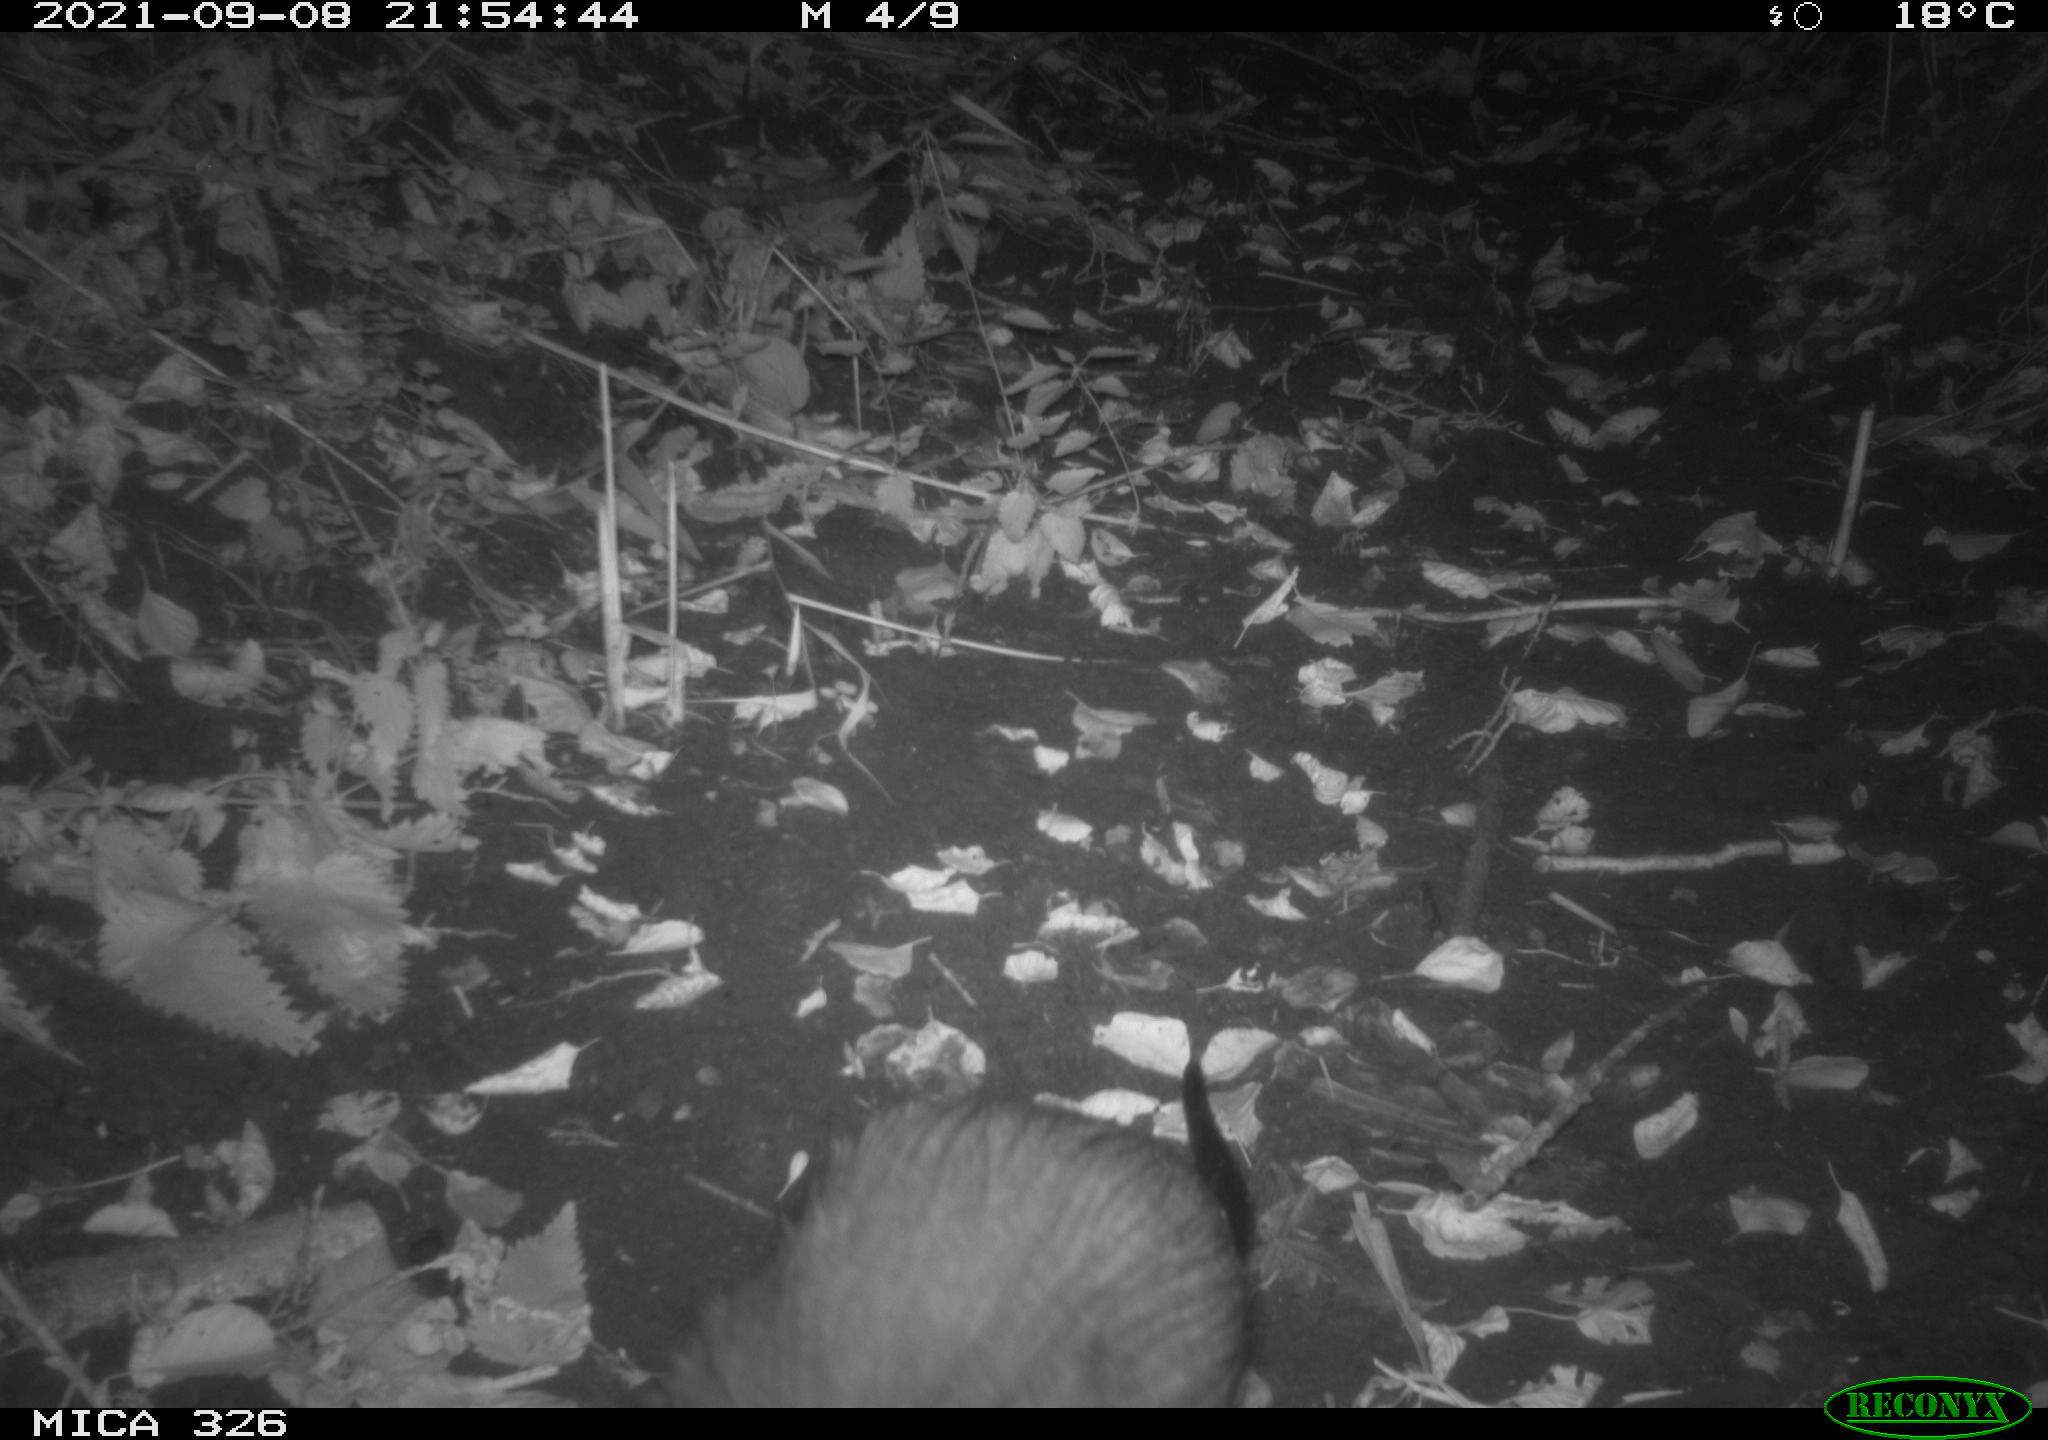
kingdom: Animalia
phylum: Chordata
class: Mammalia
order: Rodentia
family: Myocastoridae
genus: Myocastor
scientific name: Myocastor coypus
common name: Coypu
